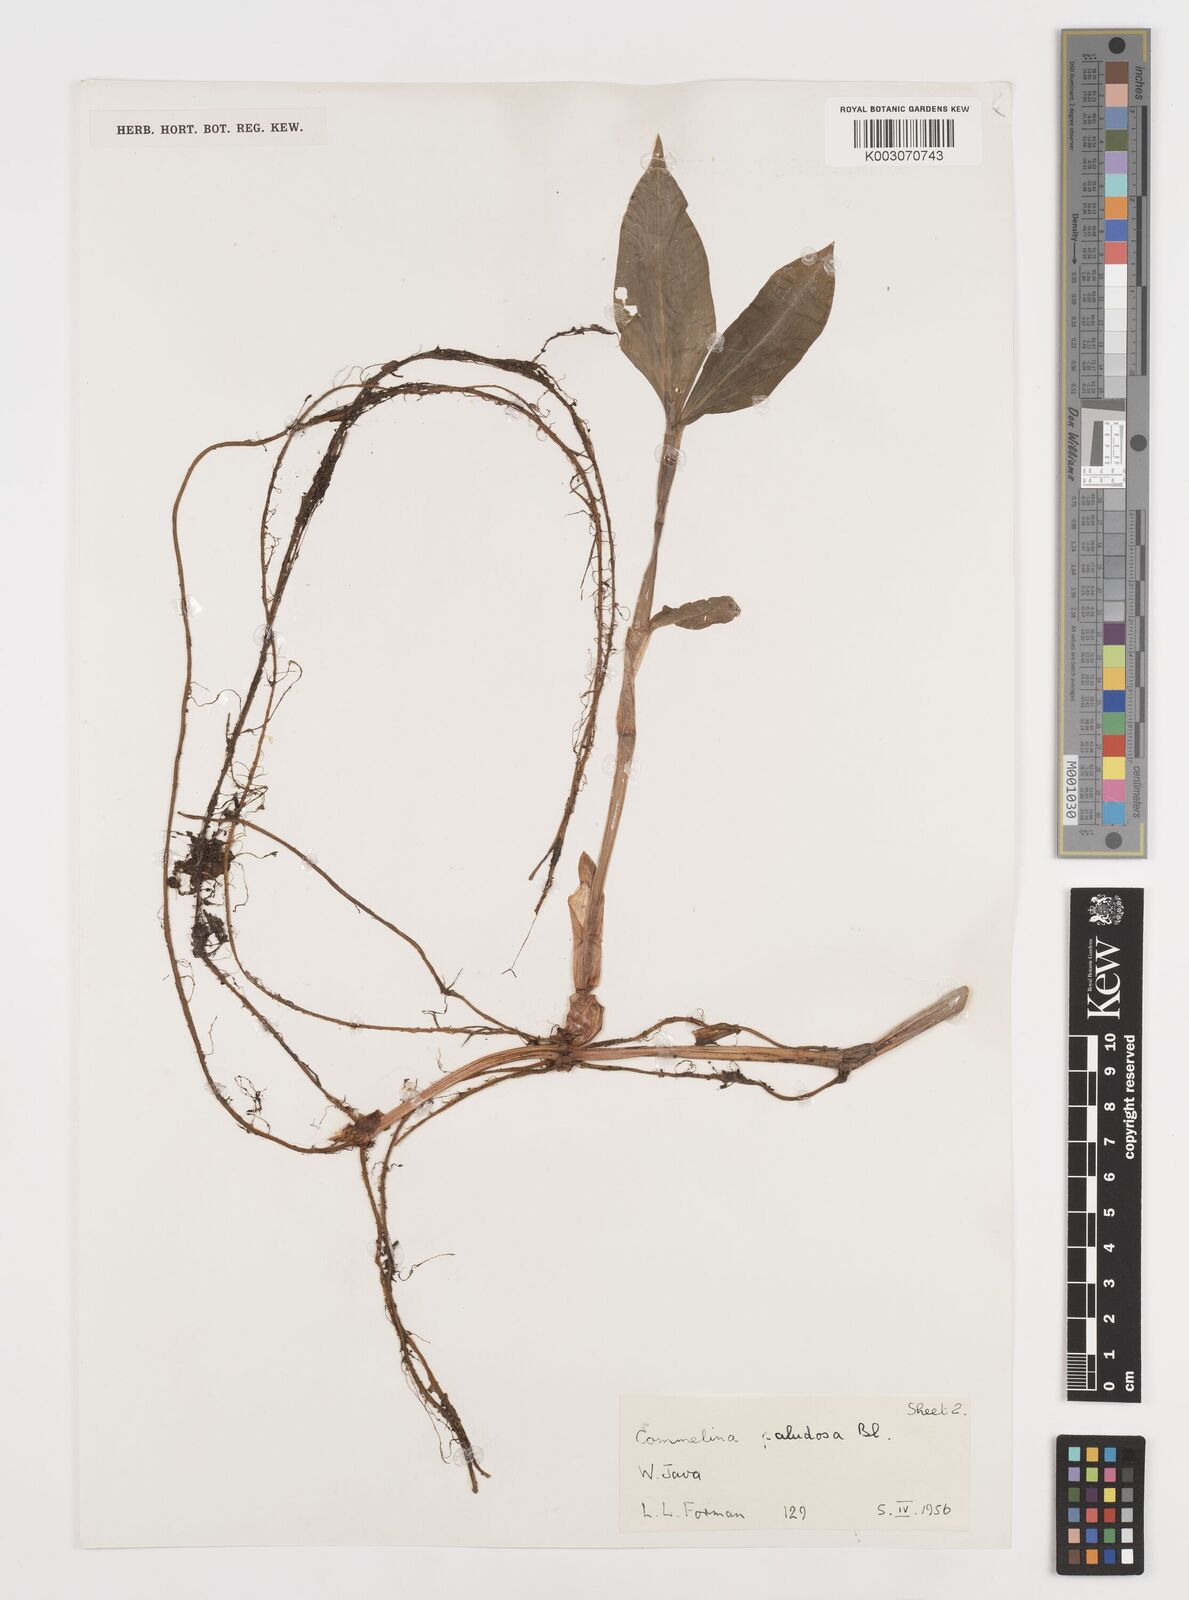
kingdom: Plantae
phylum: Tracheophyta
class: Liliopsida
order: Commelinales
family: Commelinaceae
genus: Commelina
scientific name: Commelina paludosa
